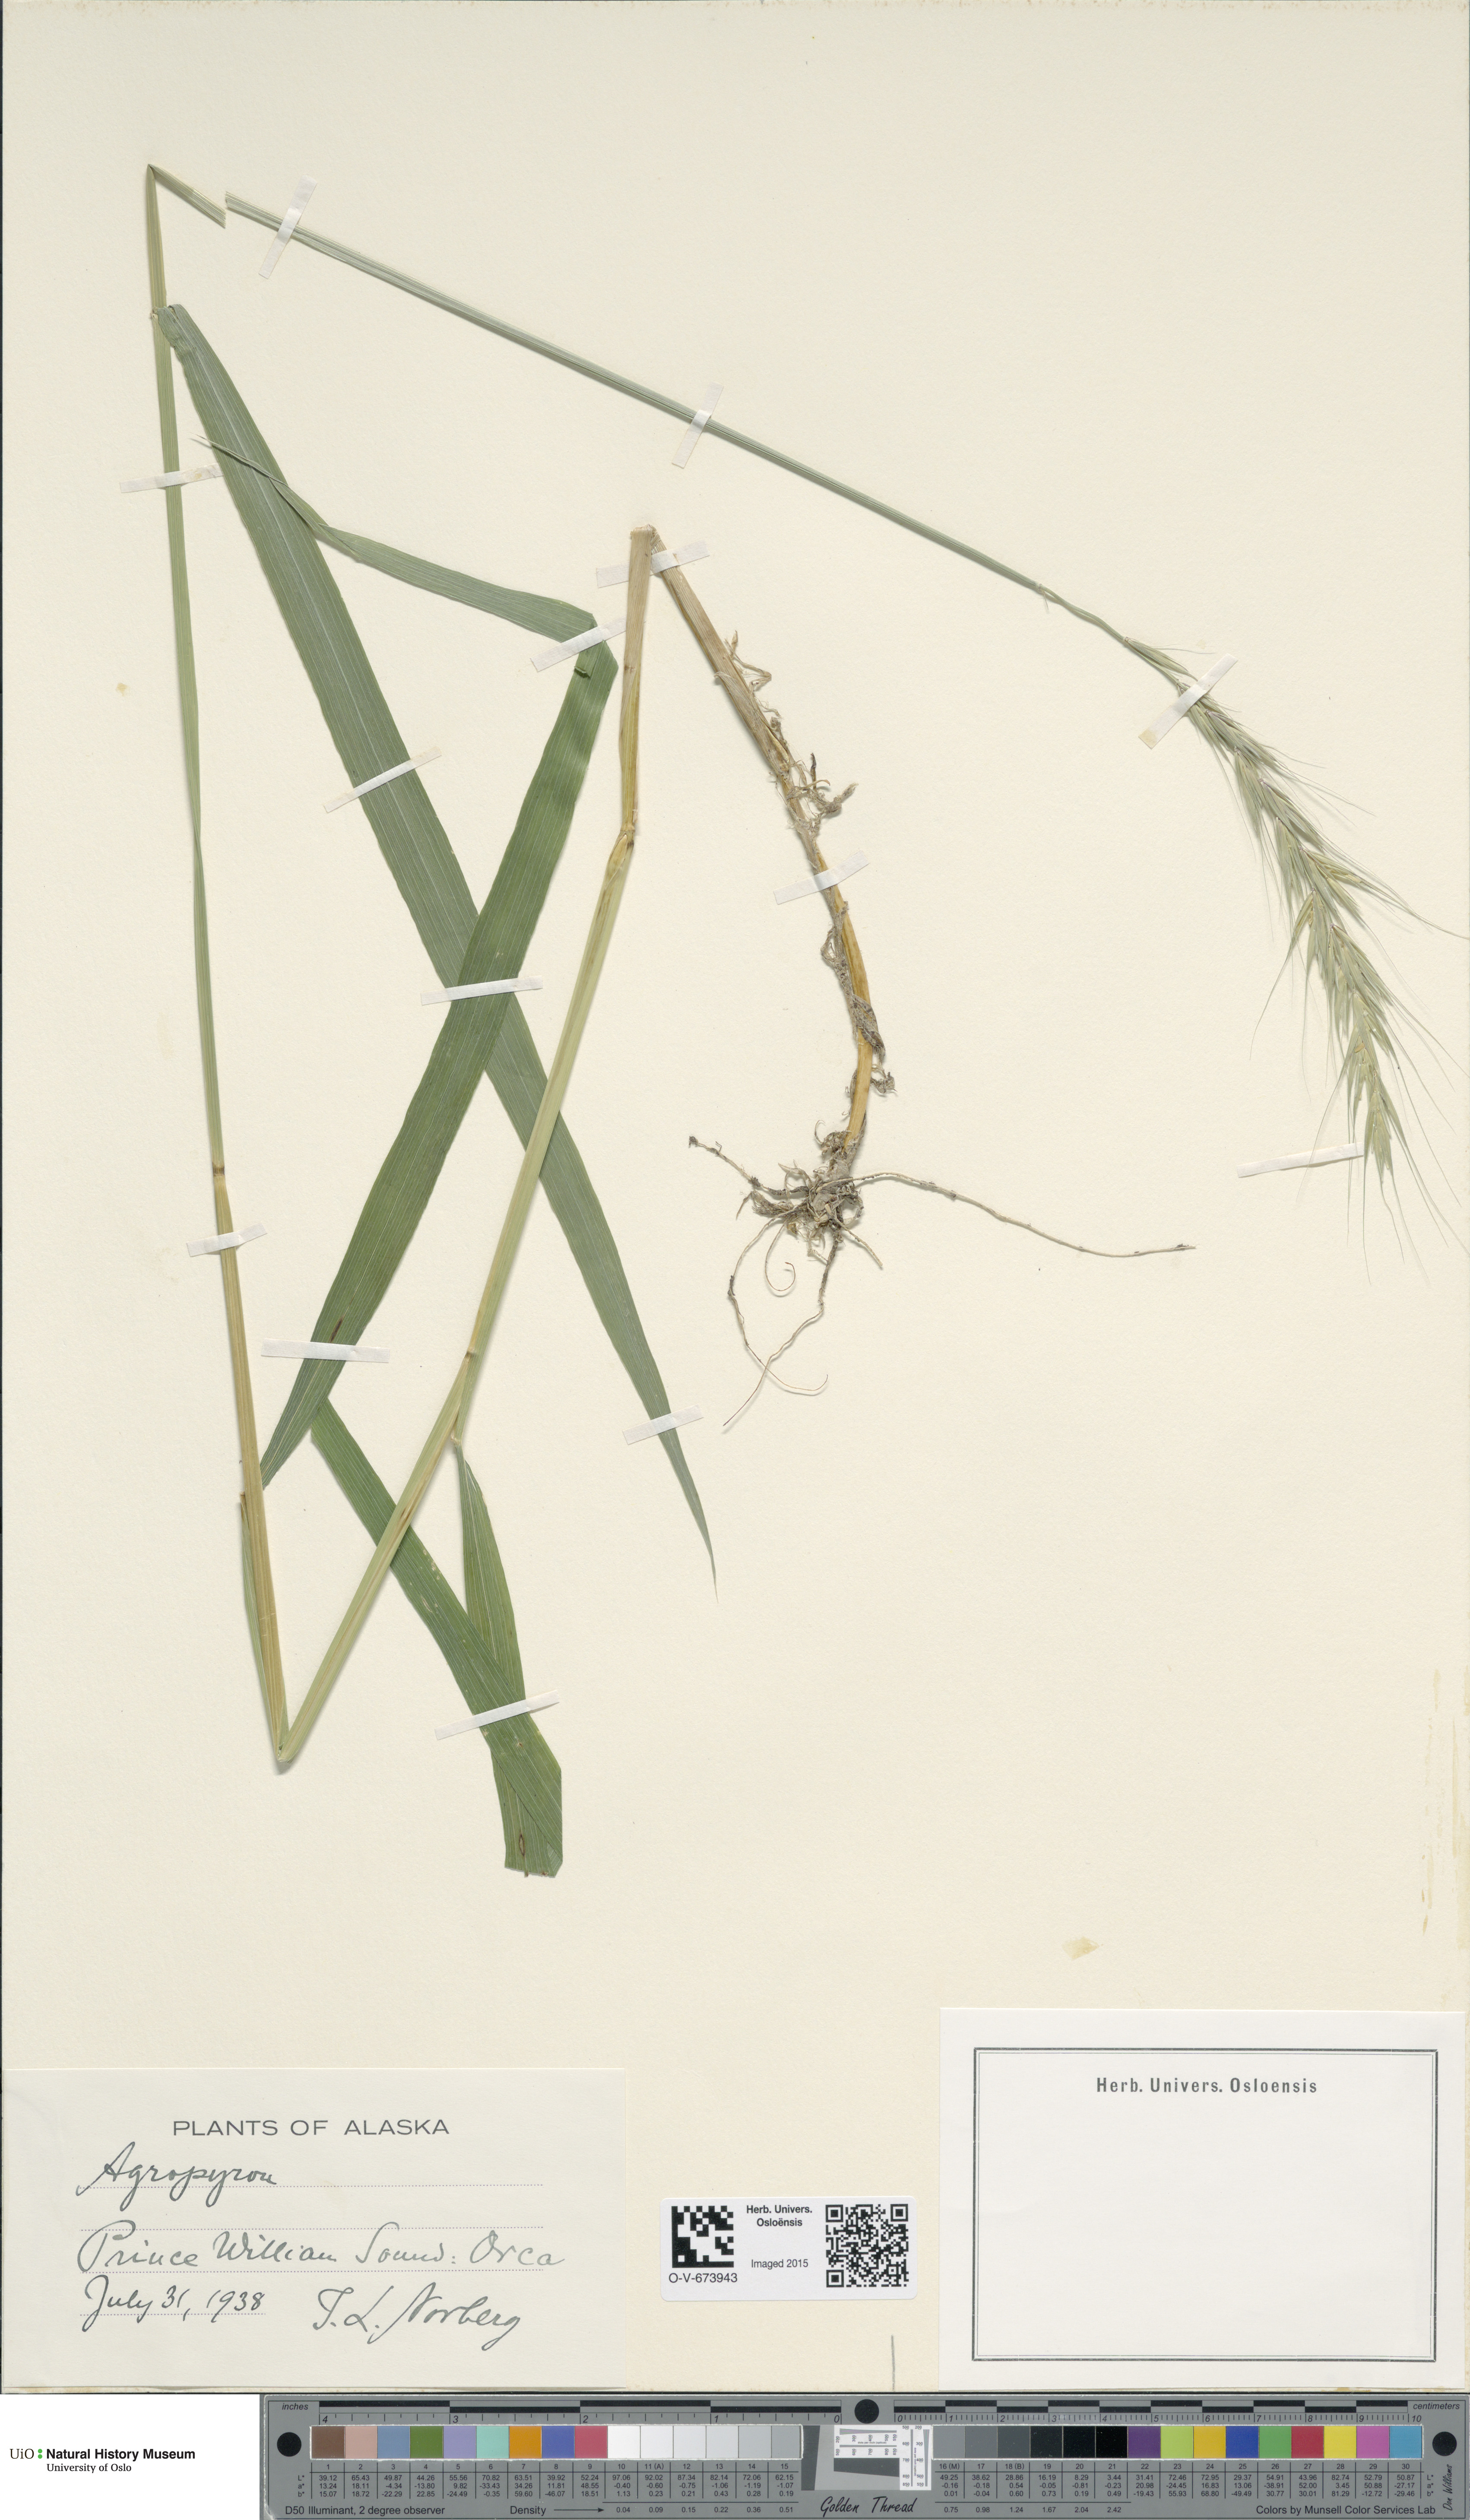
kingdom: Plantae
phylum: Tracheophyta
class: Liliopsida
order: Poales
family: Poaceae
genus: Agropyron
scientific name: Agropyron
